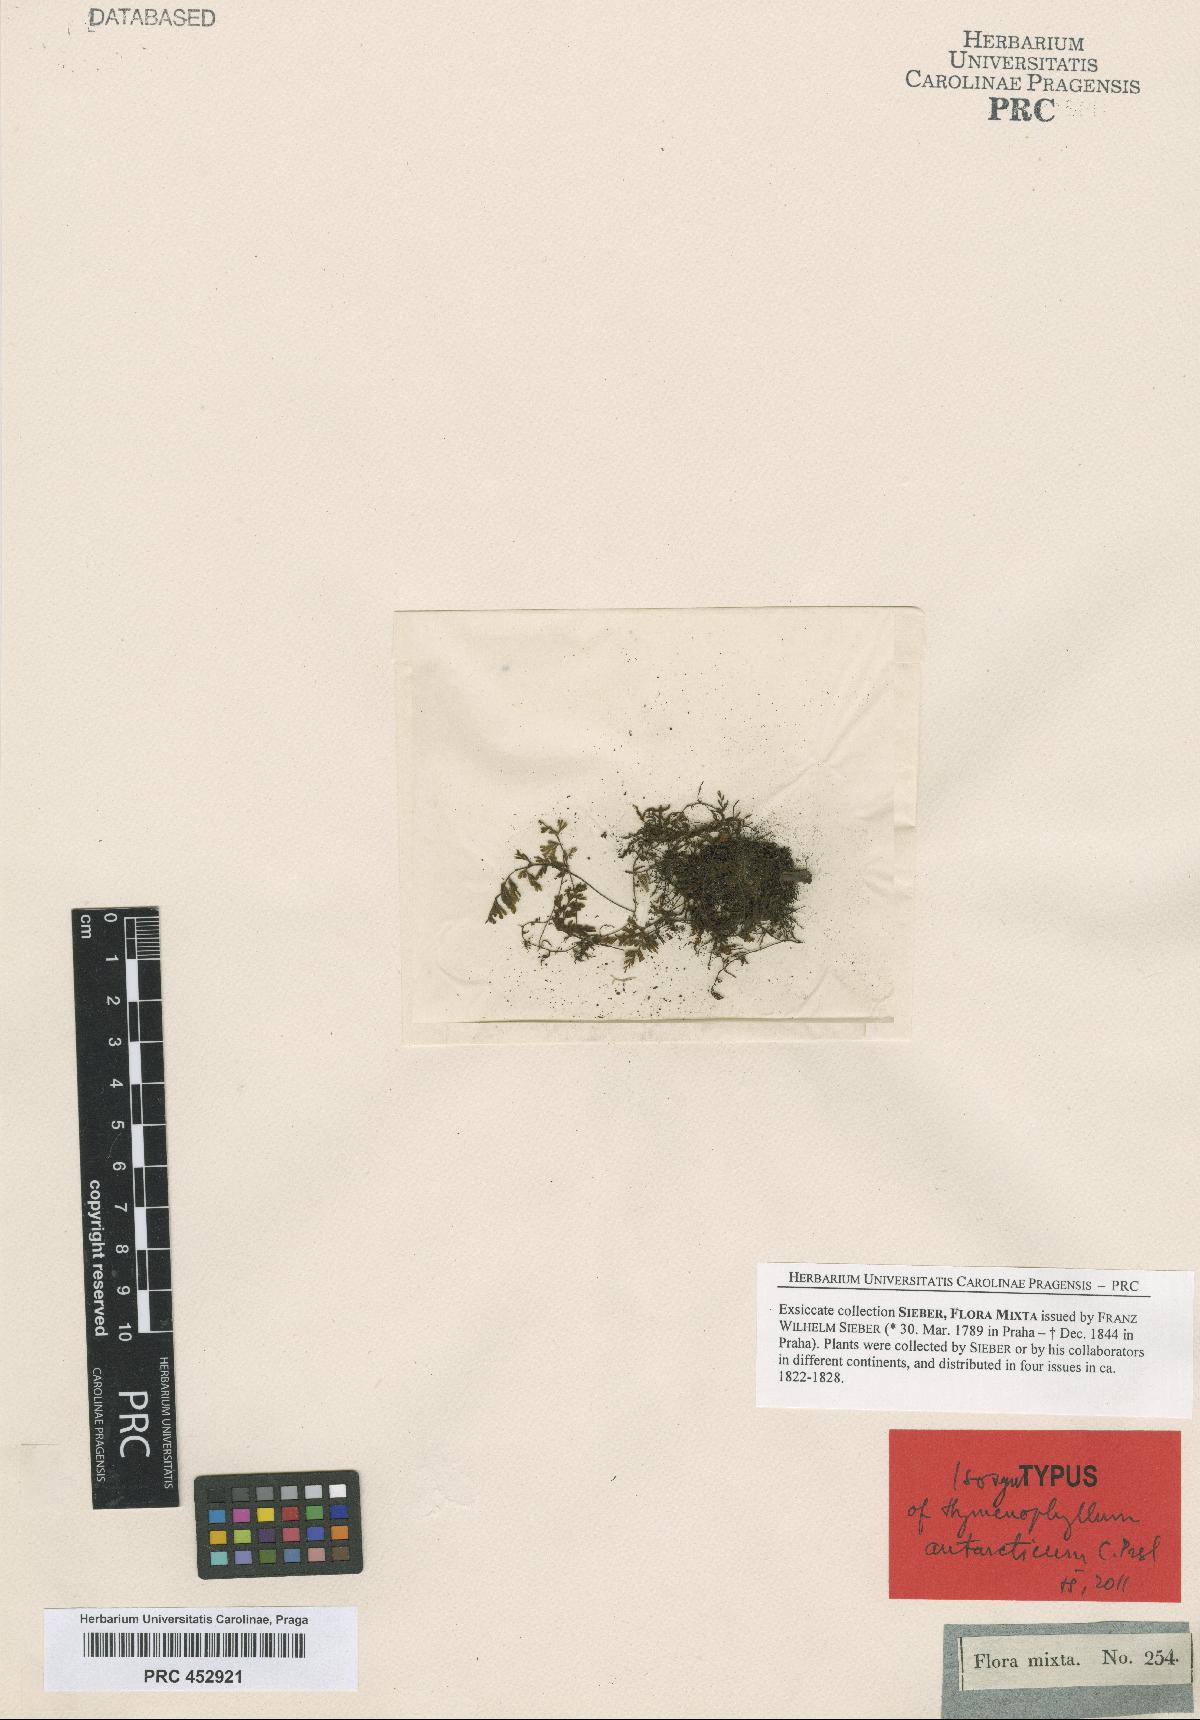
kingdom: Plantae
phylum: Tracheophyta
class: Polypodiopsida
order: Hymenophyllales
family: Hymenophyllaceae
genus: Hymenophyllum
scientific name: Hymenophyllum cupressiforme
